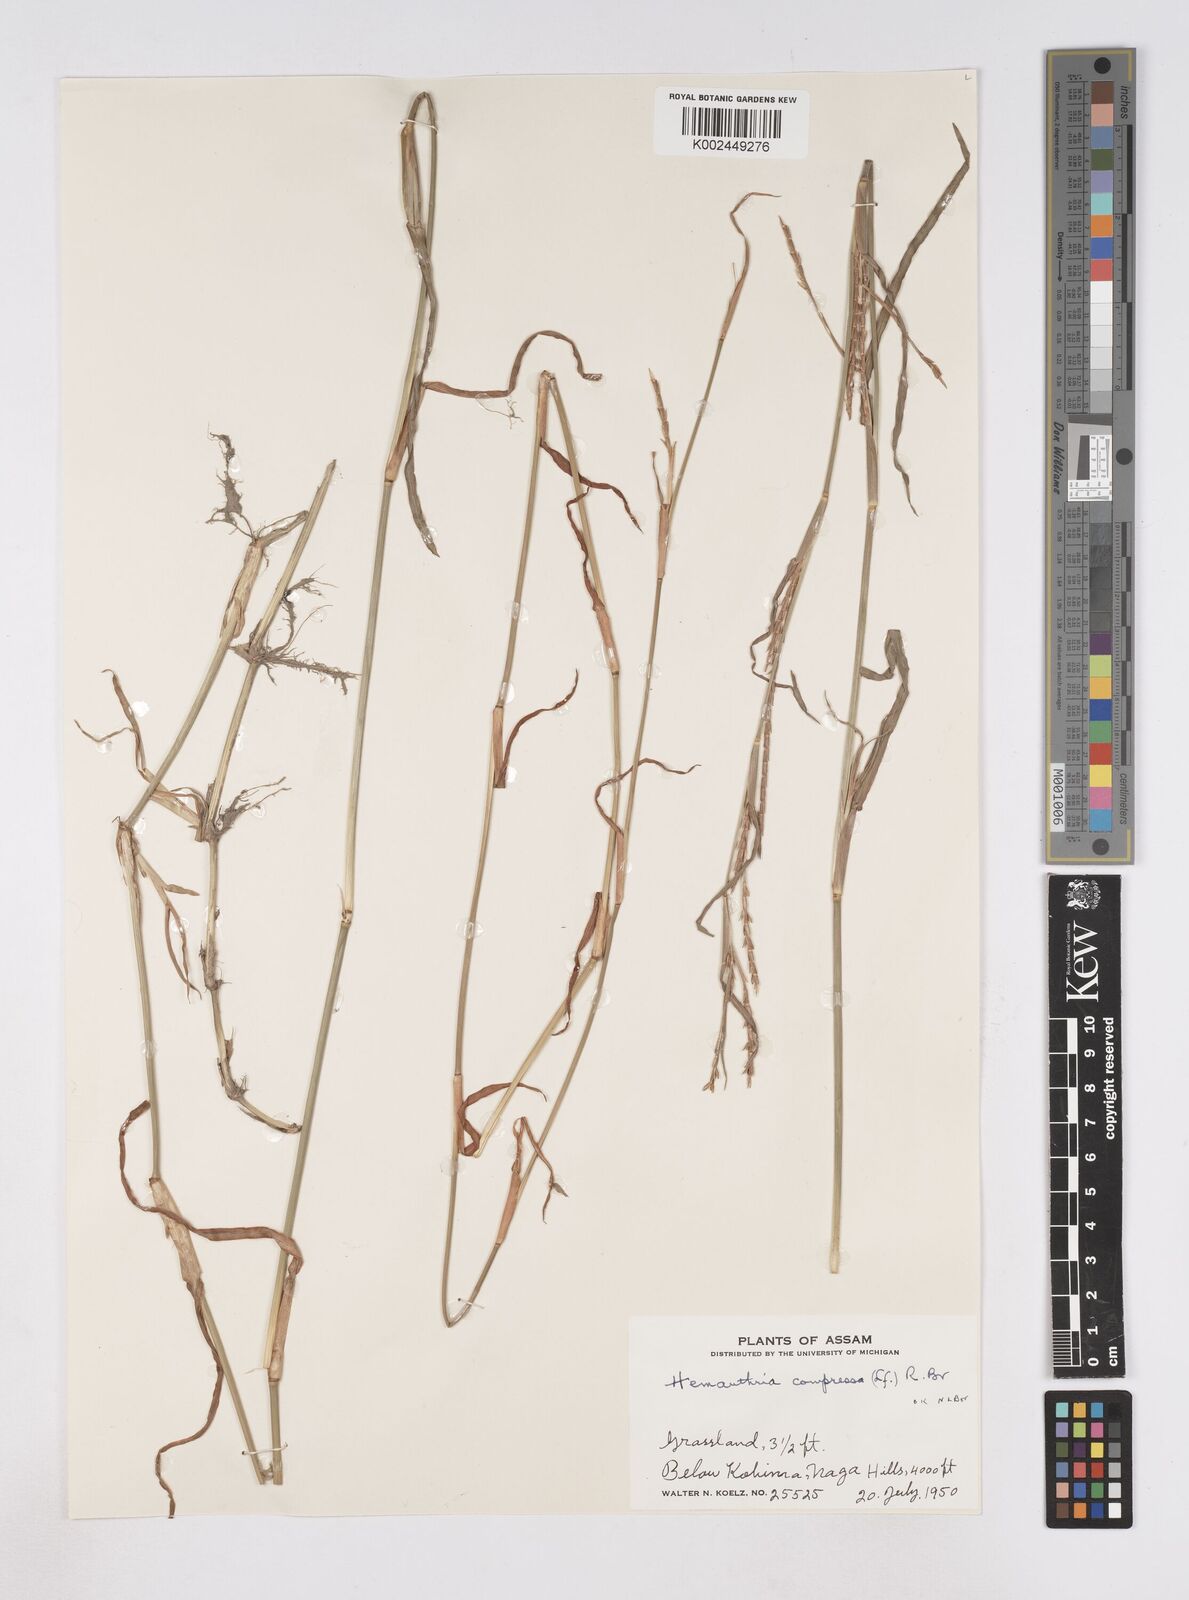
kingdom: Plantae
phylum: Tracheophyta
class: Liliopsida
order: Poales
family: Poaceae
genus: Hemarthria
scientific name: Hemarthria compressa
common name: Whip grass
